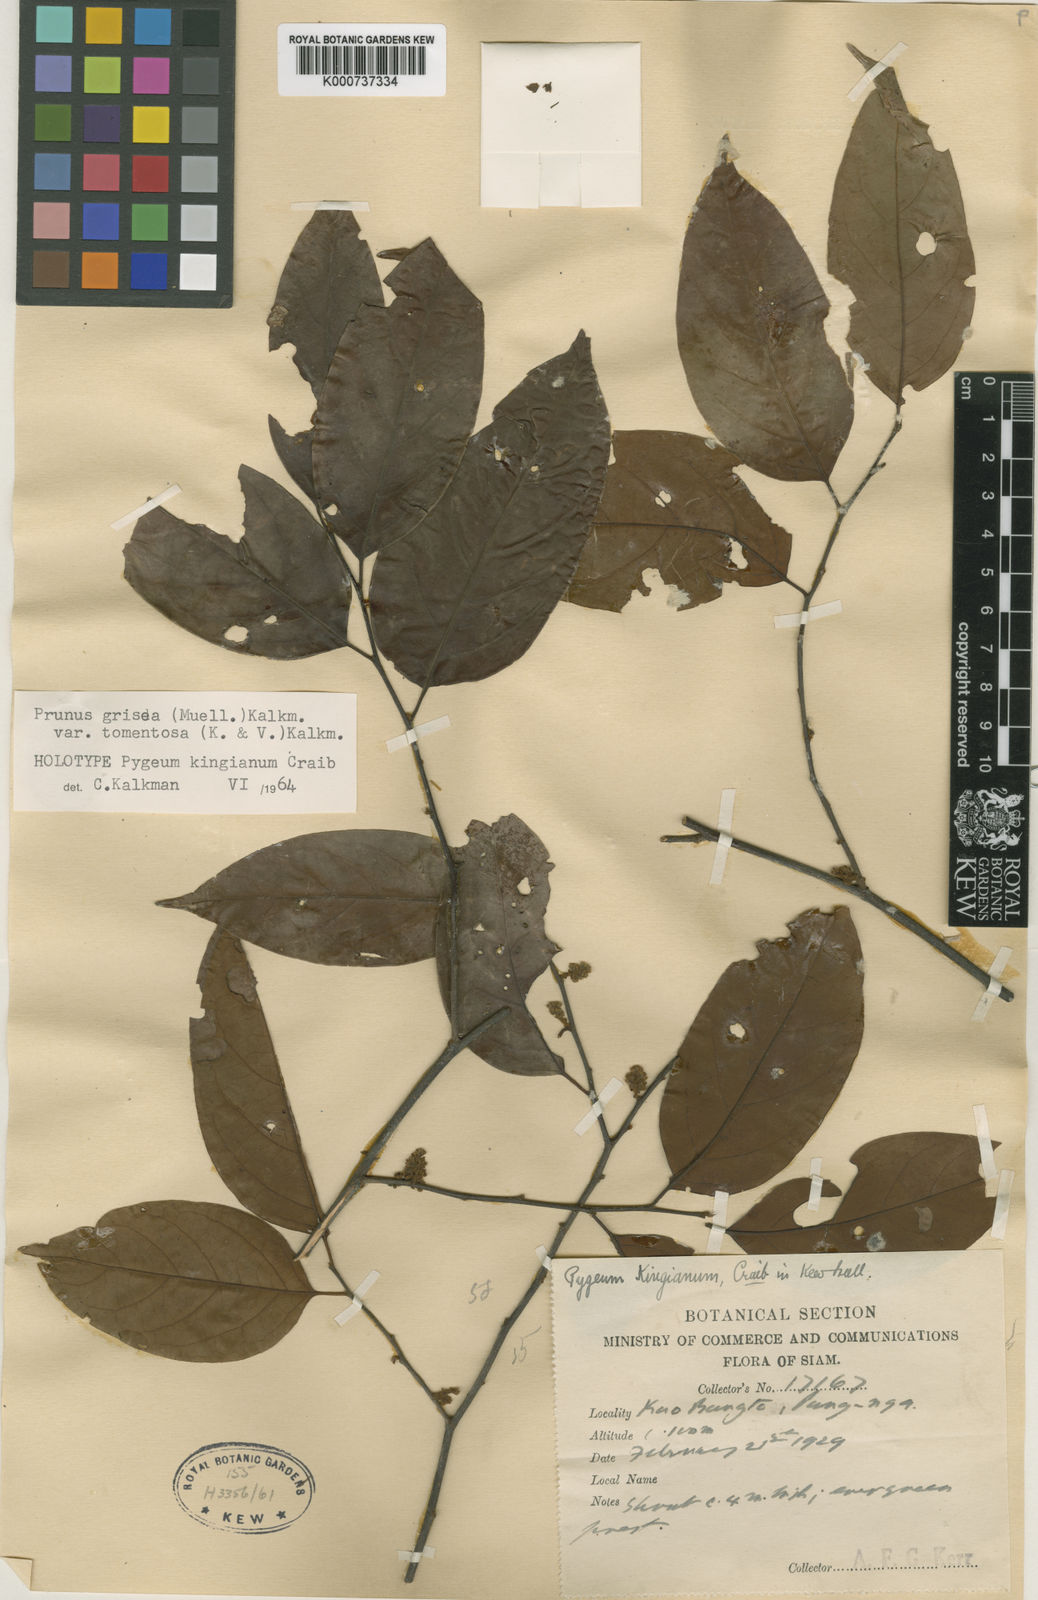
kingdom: Plantae
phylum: Tracheophyta
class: Magnoliopsida
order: Rosales
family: Rosaceae
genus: Prunus
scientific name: Prunus grisea
